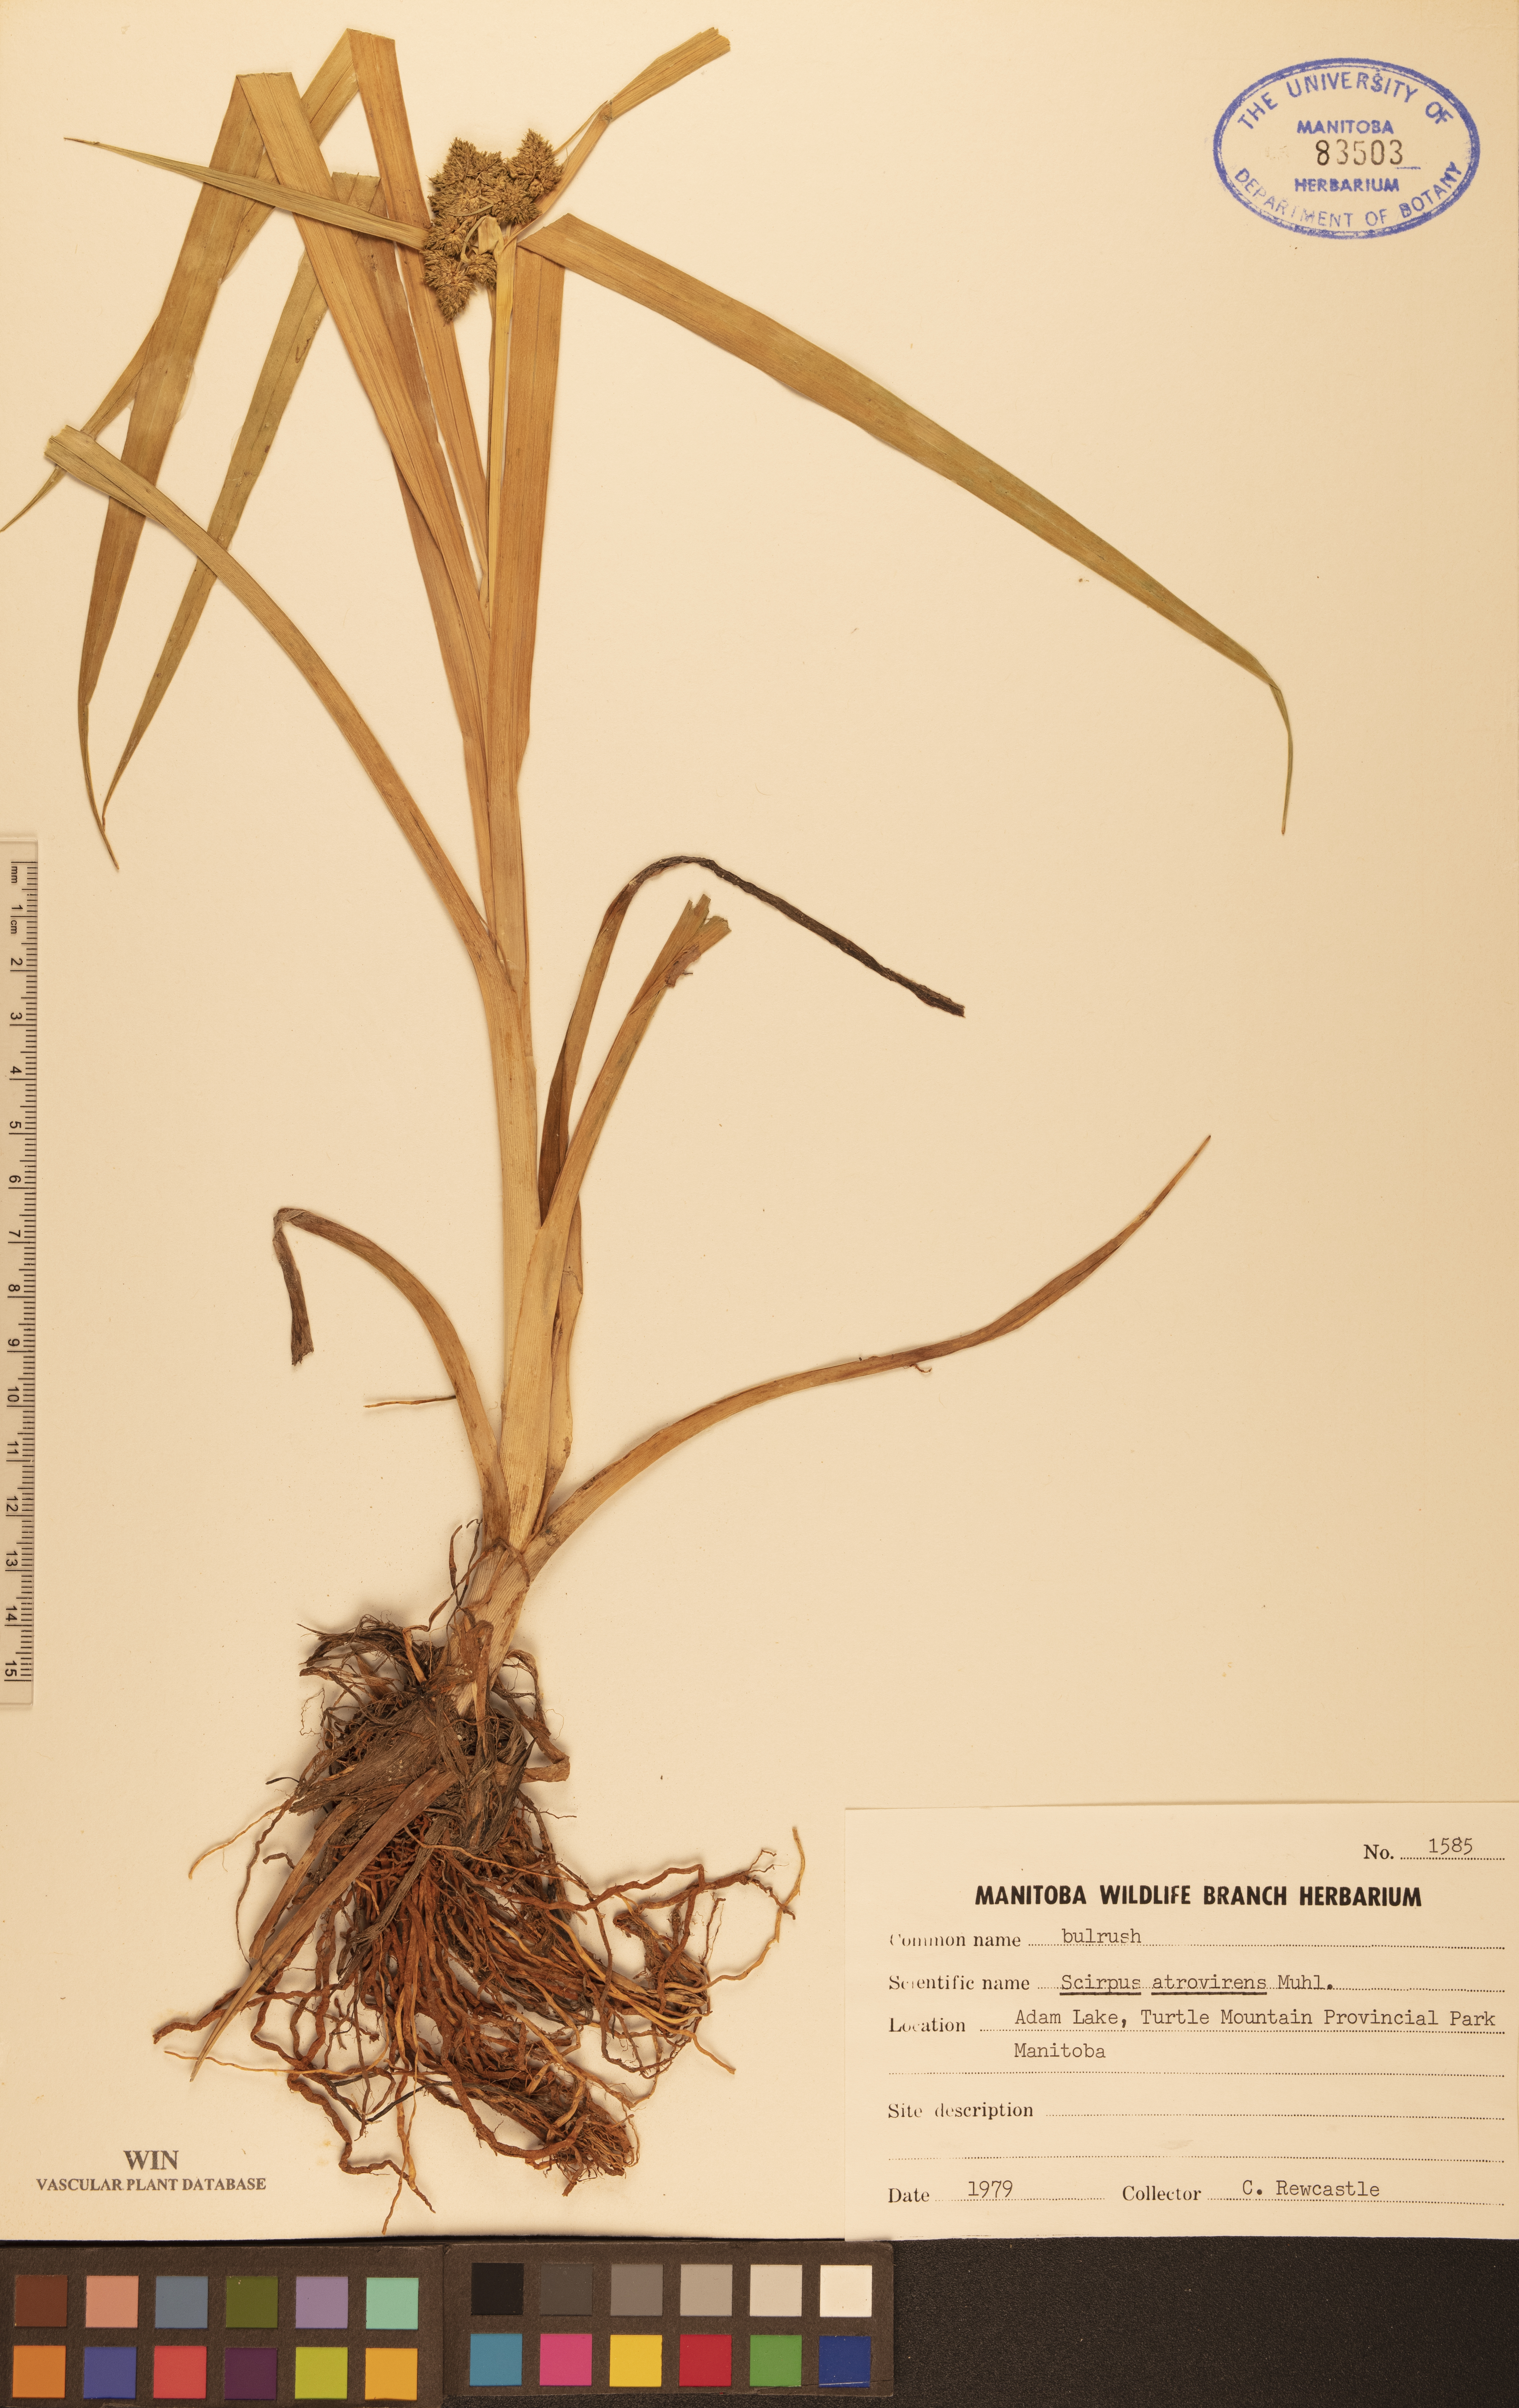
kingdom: Plantae
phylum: Tracheophyta
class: Liliopsida
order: Poales
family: Cyperaceae
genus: Scirpus
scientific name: Scirpus atrovirens
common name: Black bulrush
